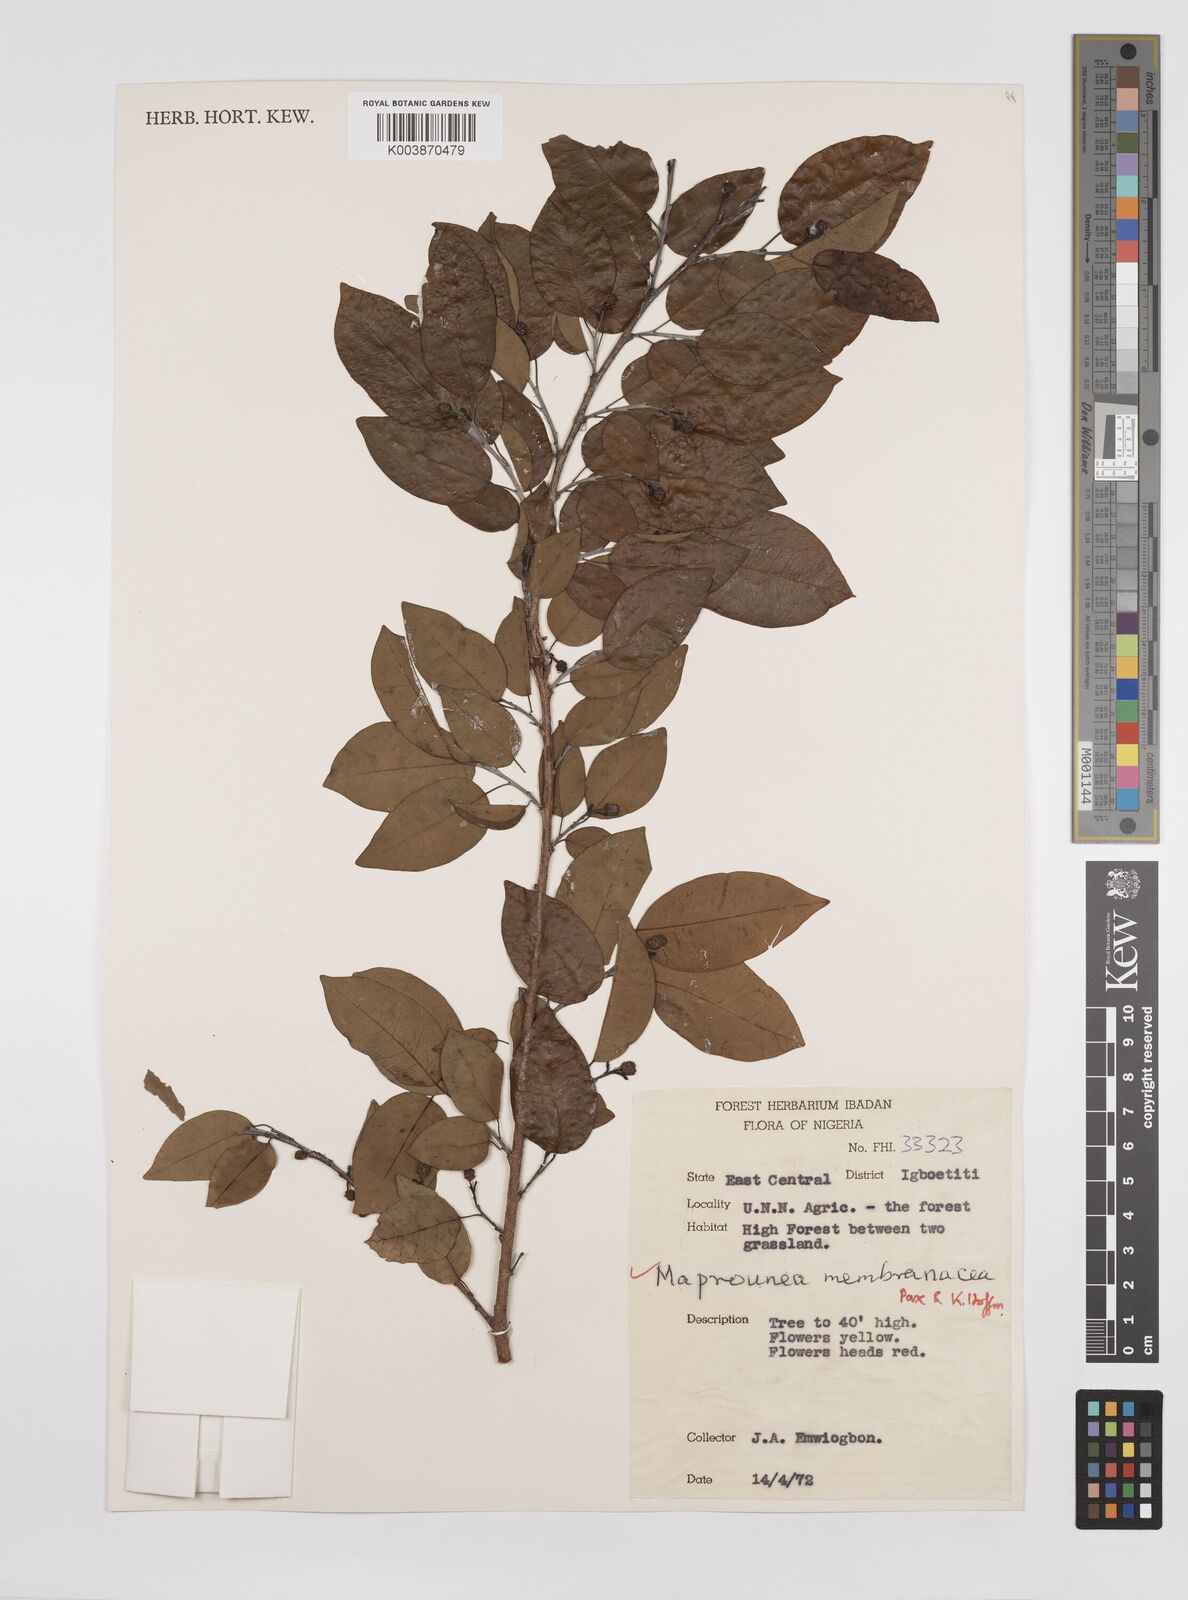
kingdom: Plantae
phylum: Tracheophyta
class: Magnoliopsida
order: Malpighiales
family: Euphorbiaceae
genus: Maprounea
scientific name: Maprounea membranacea
